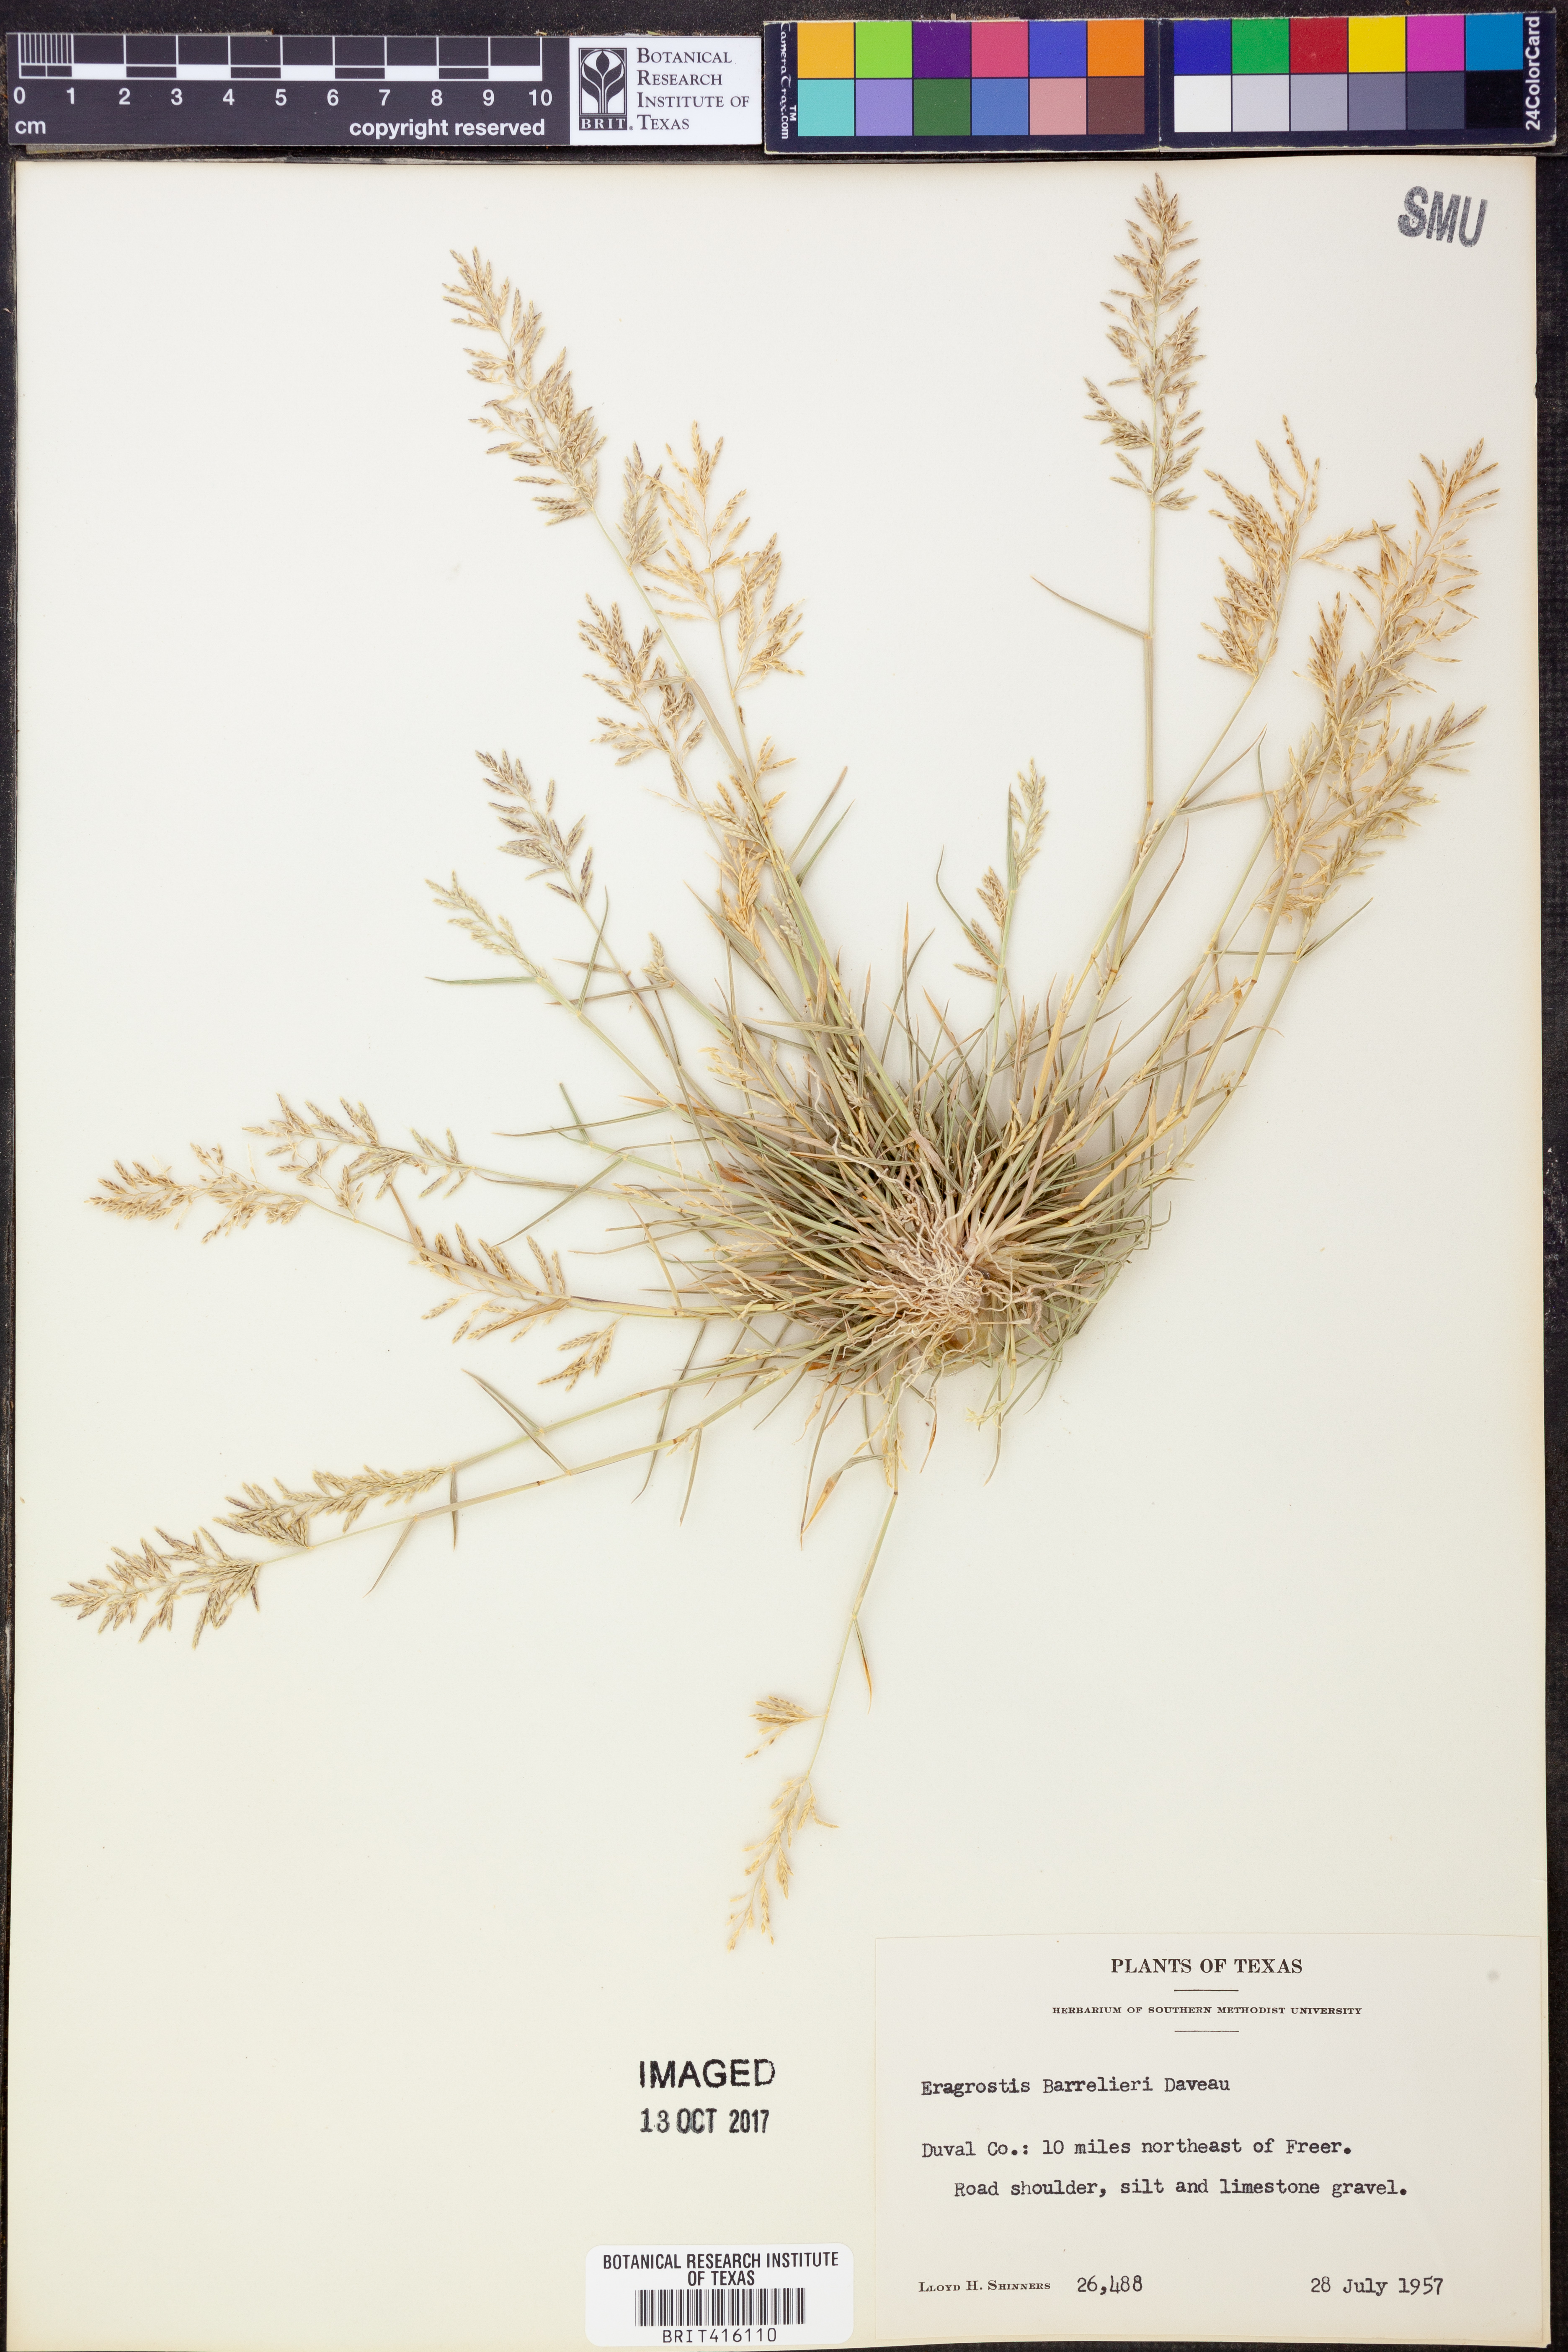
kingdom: Plantae
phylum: Tracheophyta
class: Liliopsida
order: Poales
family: Poaceae
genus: Eragrostis
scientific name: Eragrostis barrelieri
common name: Mediterranean lovegrass
